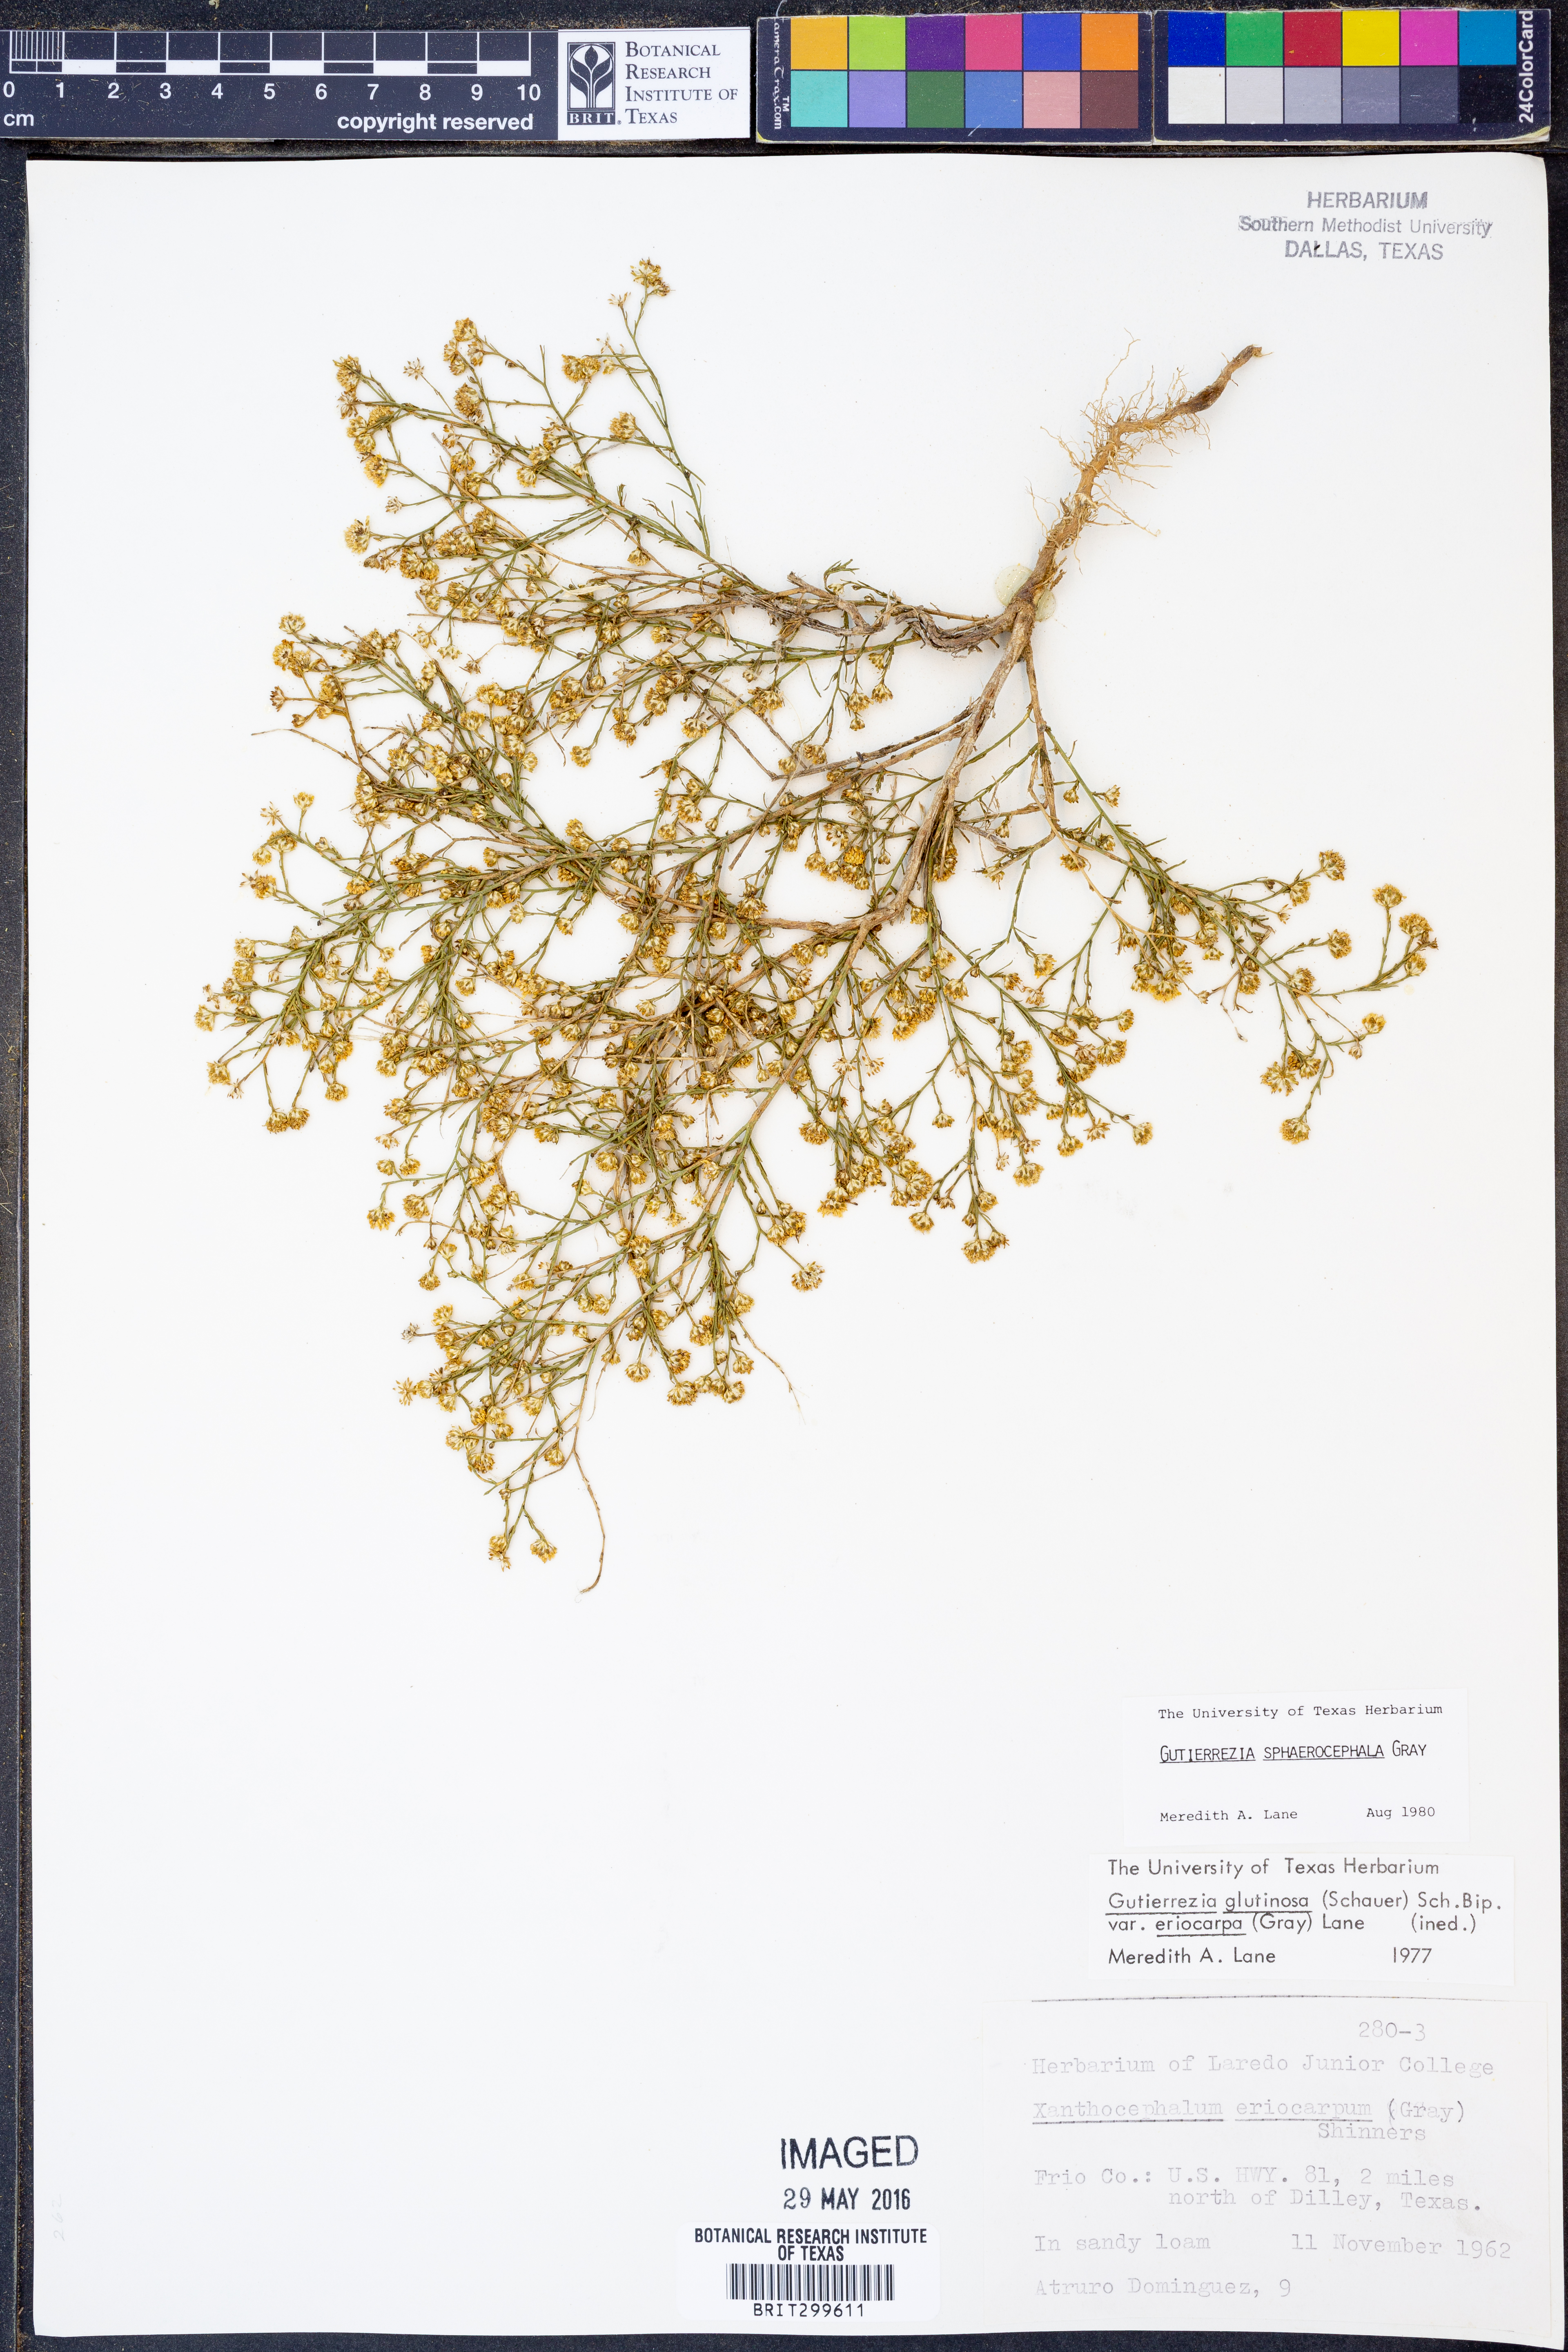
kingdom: Plantae
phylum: Tracheophyta
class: Magnoliopsida
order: Asterales
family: Asteraceae
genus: Gutierrezia
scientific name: Gutierrezia sphaerocephala
